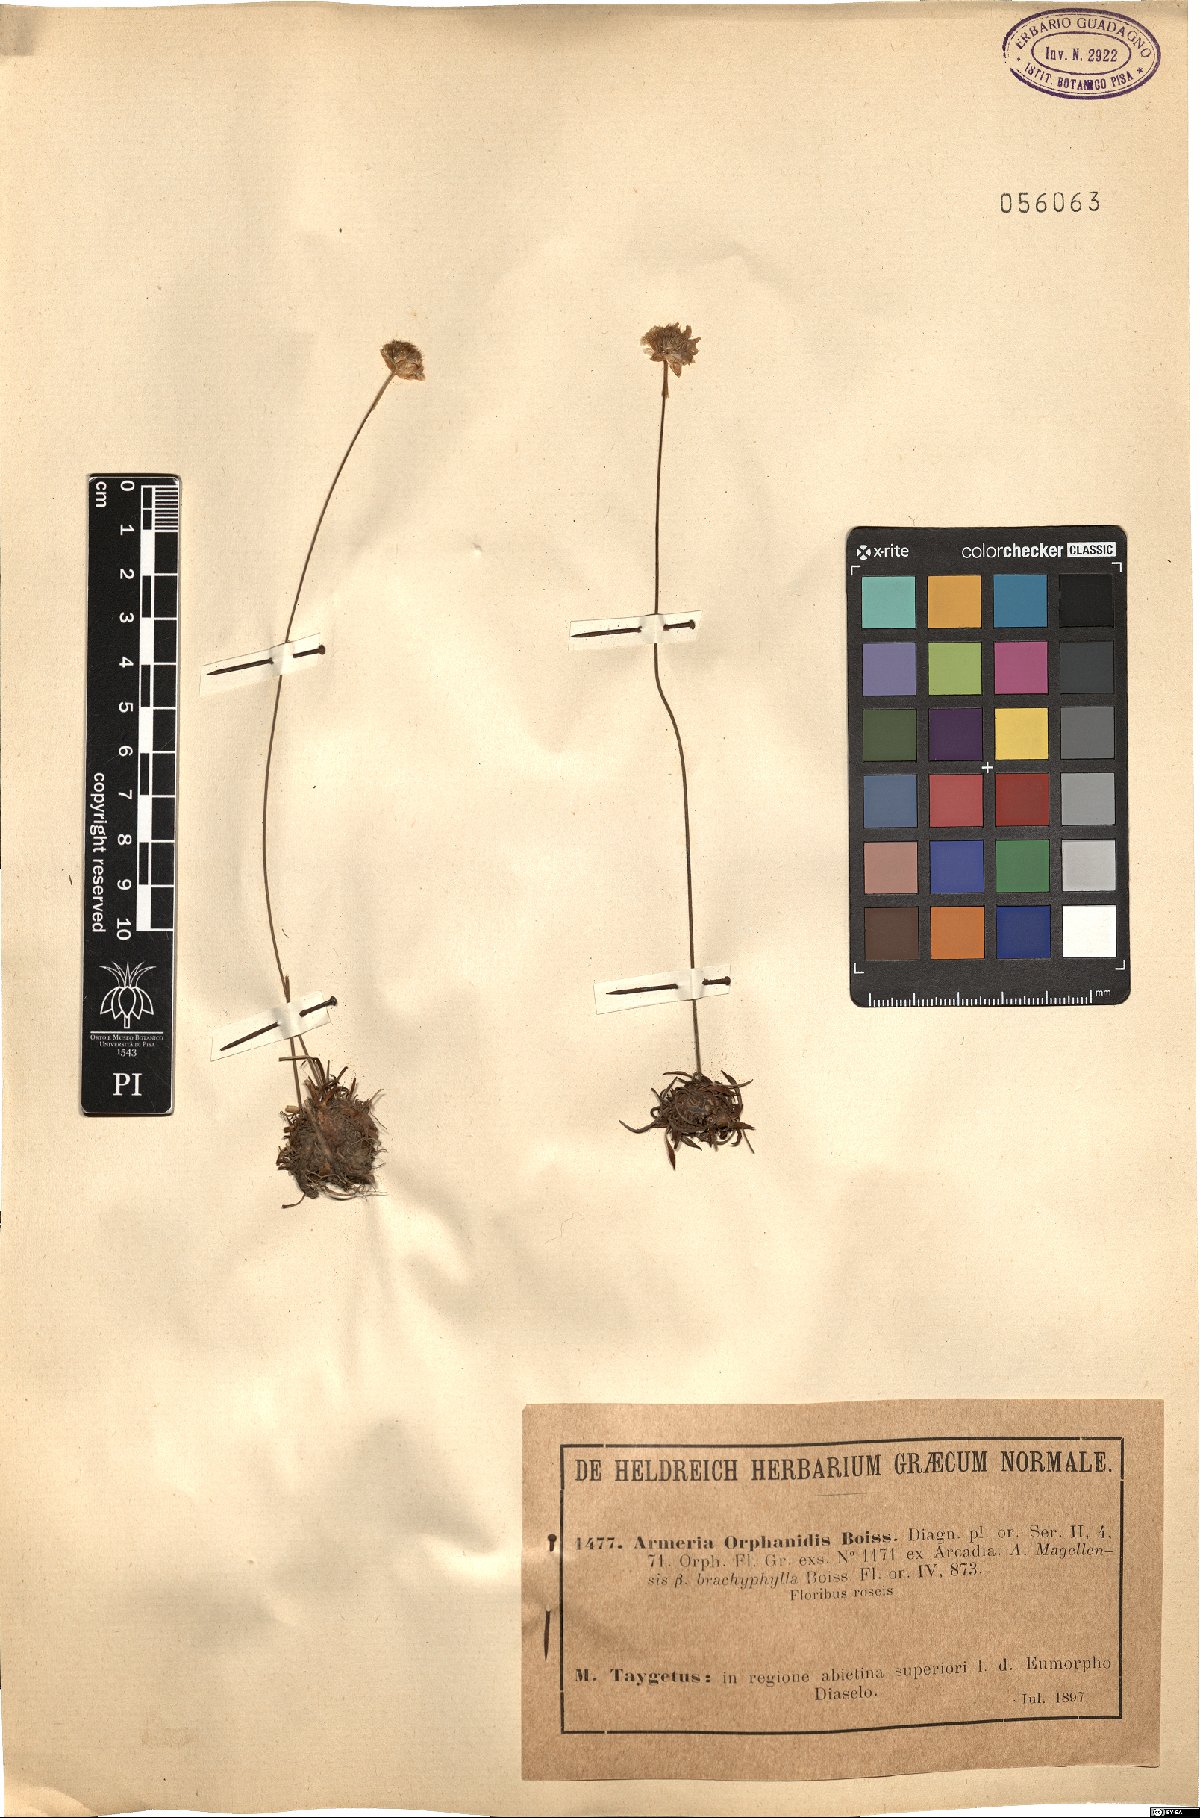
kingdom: Plantae
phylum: Tracheophyta
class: Magnoliopsida
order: Caryophyllales
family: Plumbaginaceae
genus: Armeria
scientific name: Armeria
